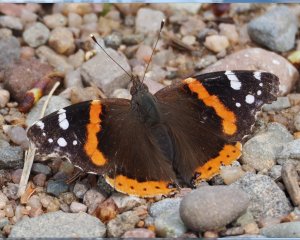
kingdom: Animalia
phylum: Arthropoda
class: Insecta
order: Lepidoptera
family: Nymphalidae
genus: Vanessa
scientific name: Vanessa atalanta
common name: Red Admiral
